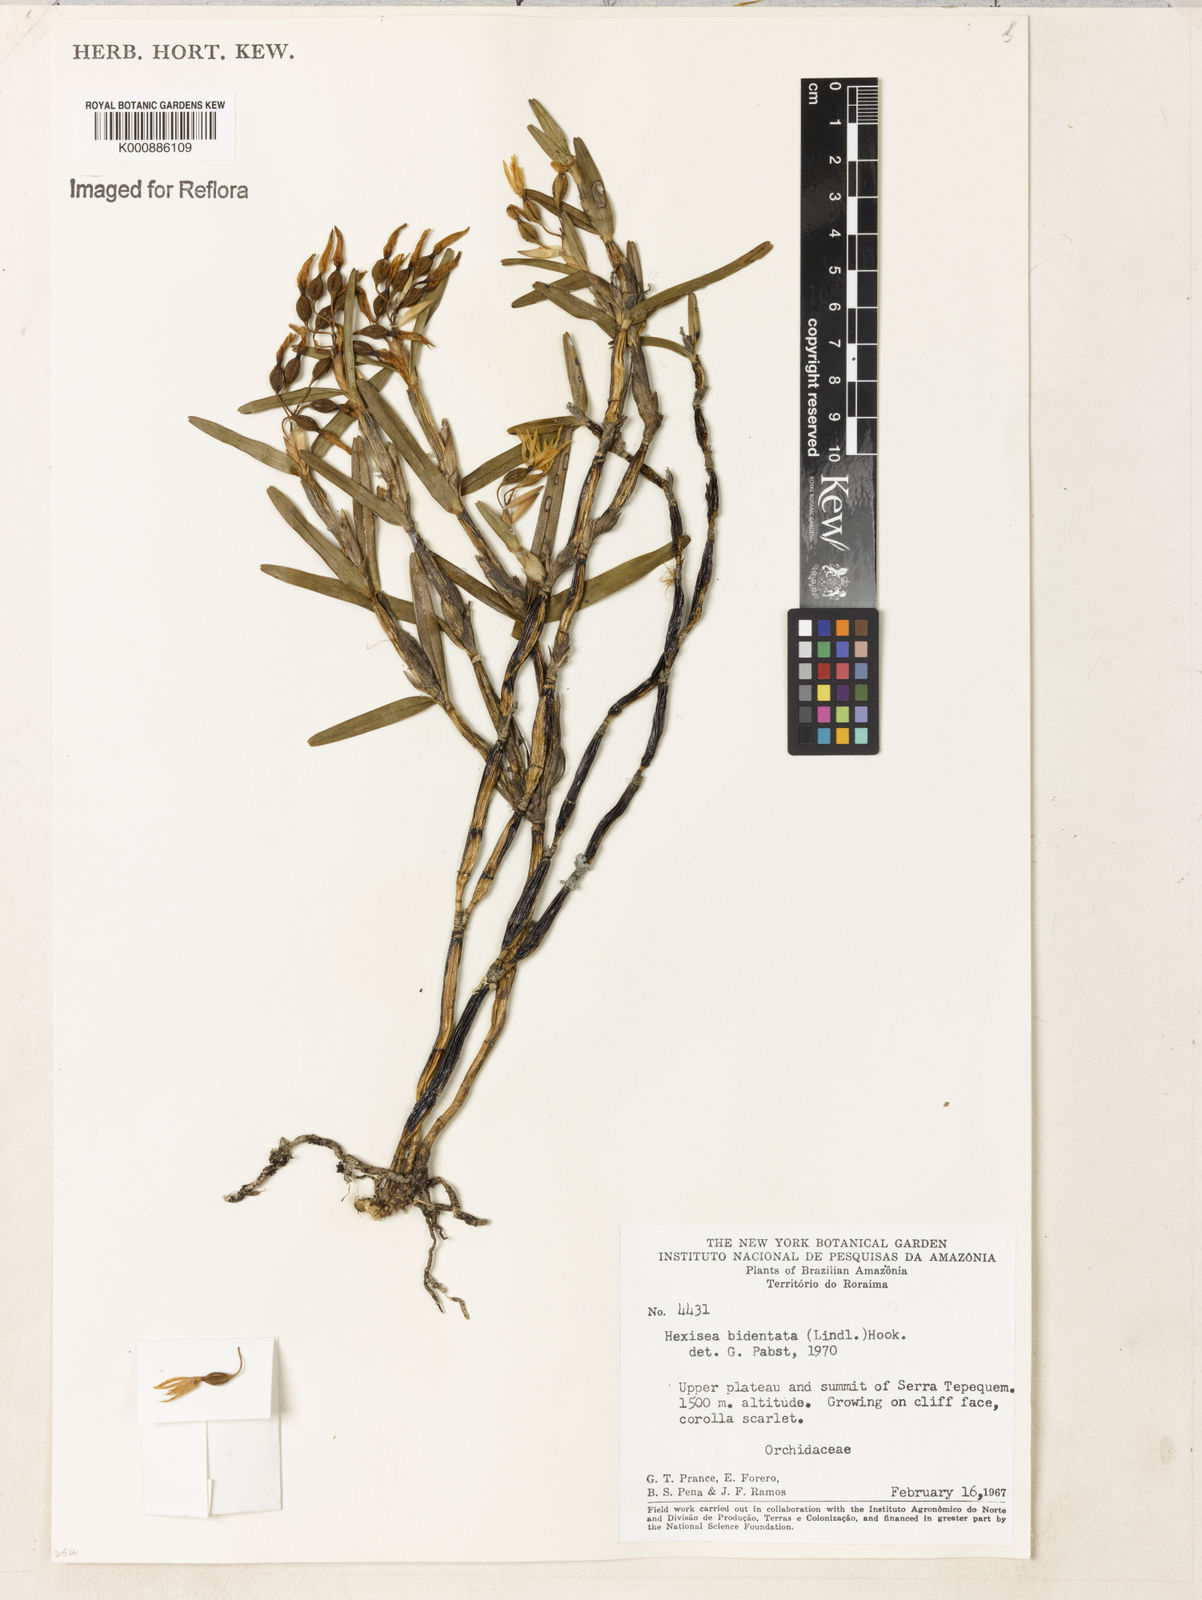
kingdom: Plantae
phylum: Tracheophyta
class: Liliopsida
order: Asparagales
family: Orchidaceae
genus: Scaphyglottis
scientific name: Scaphyglottis bidentata
